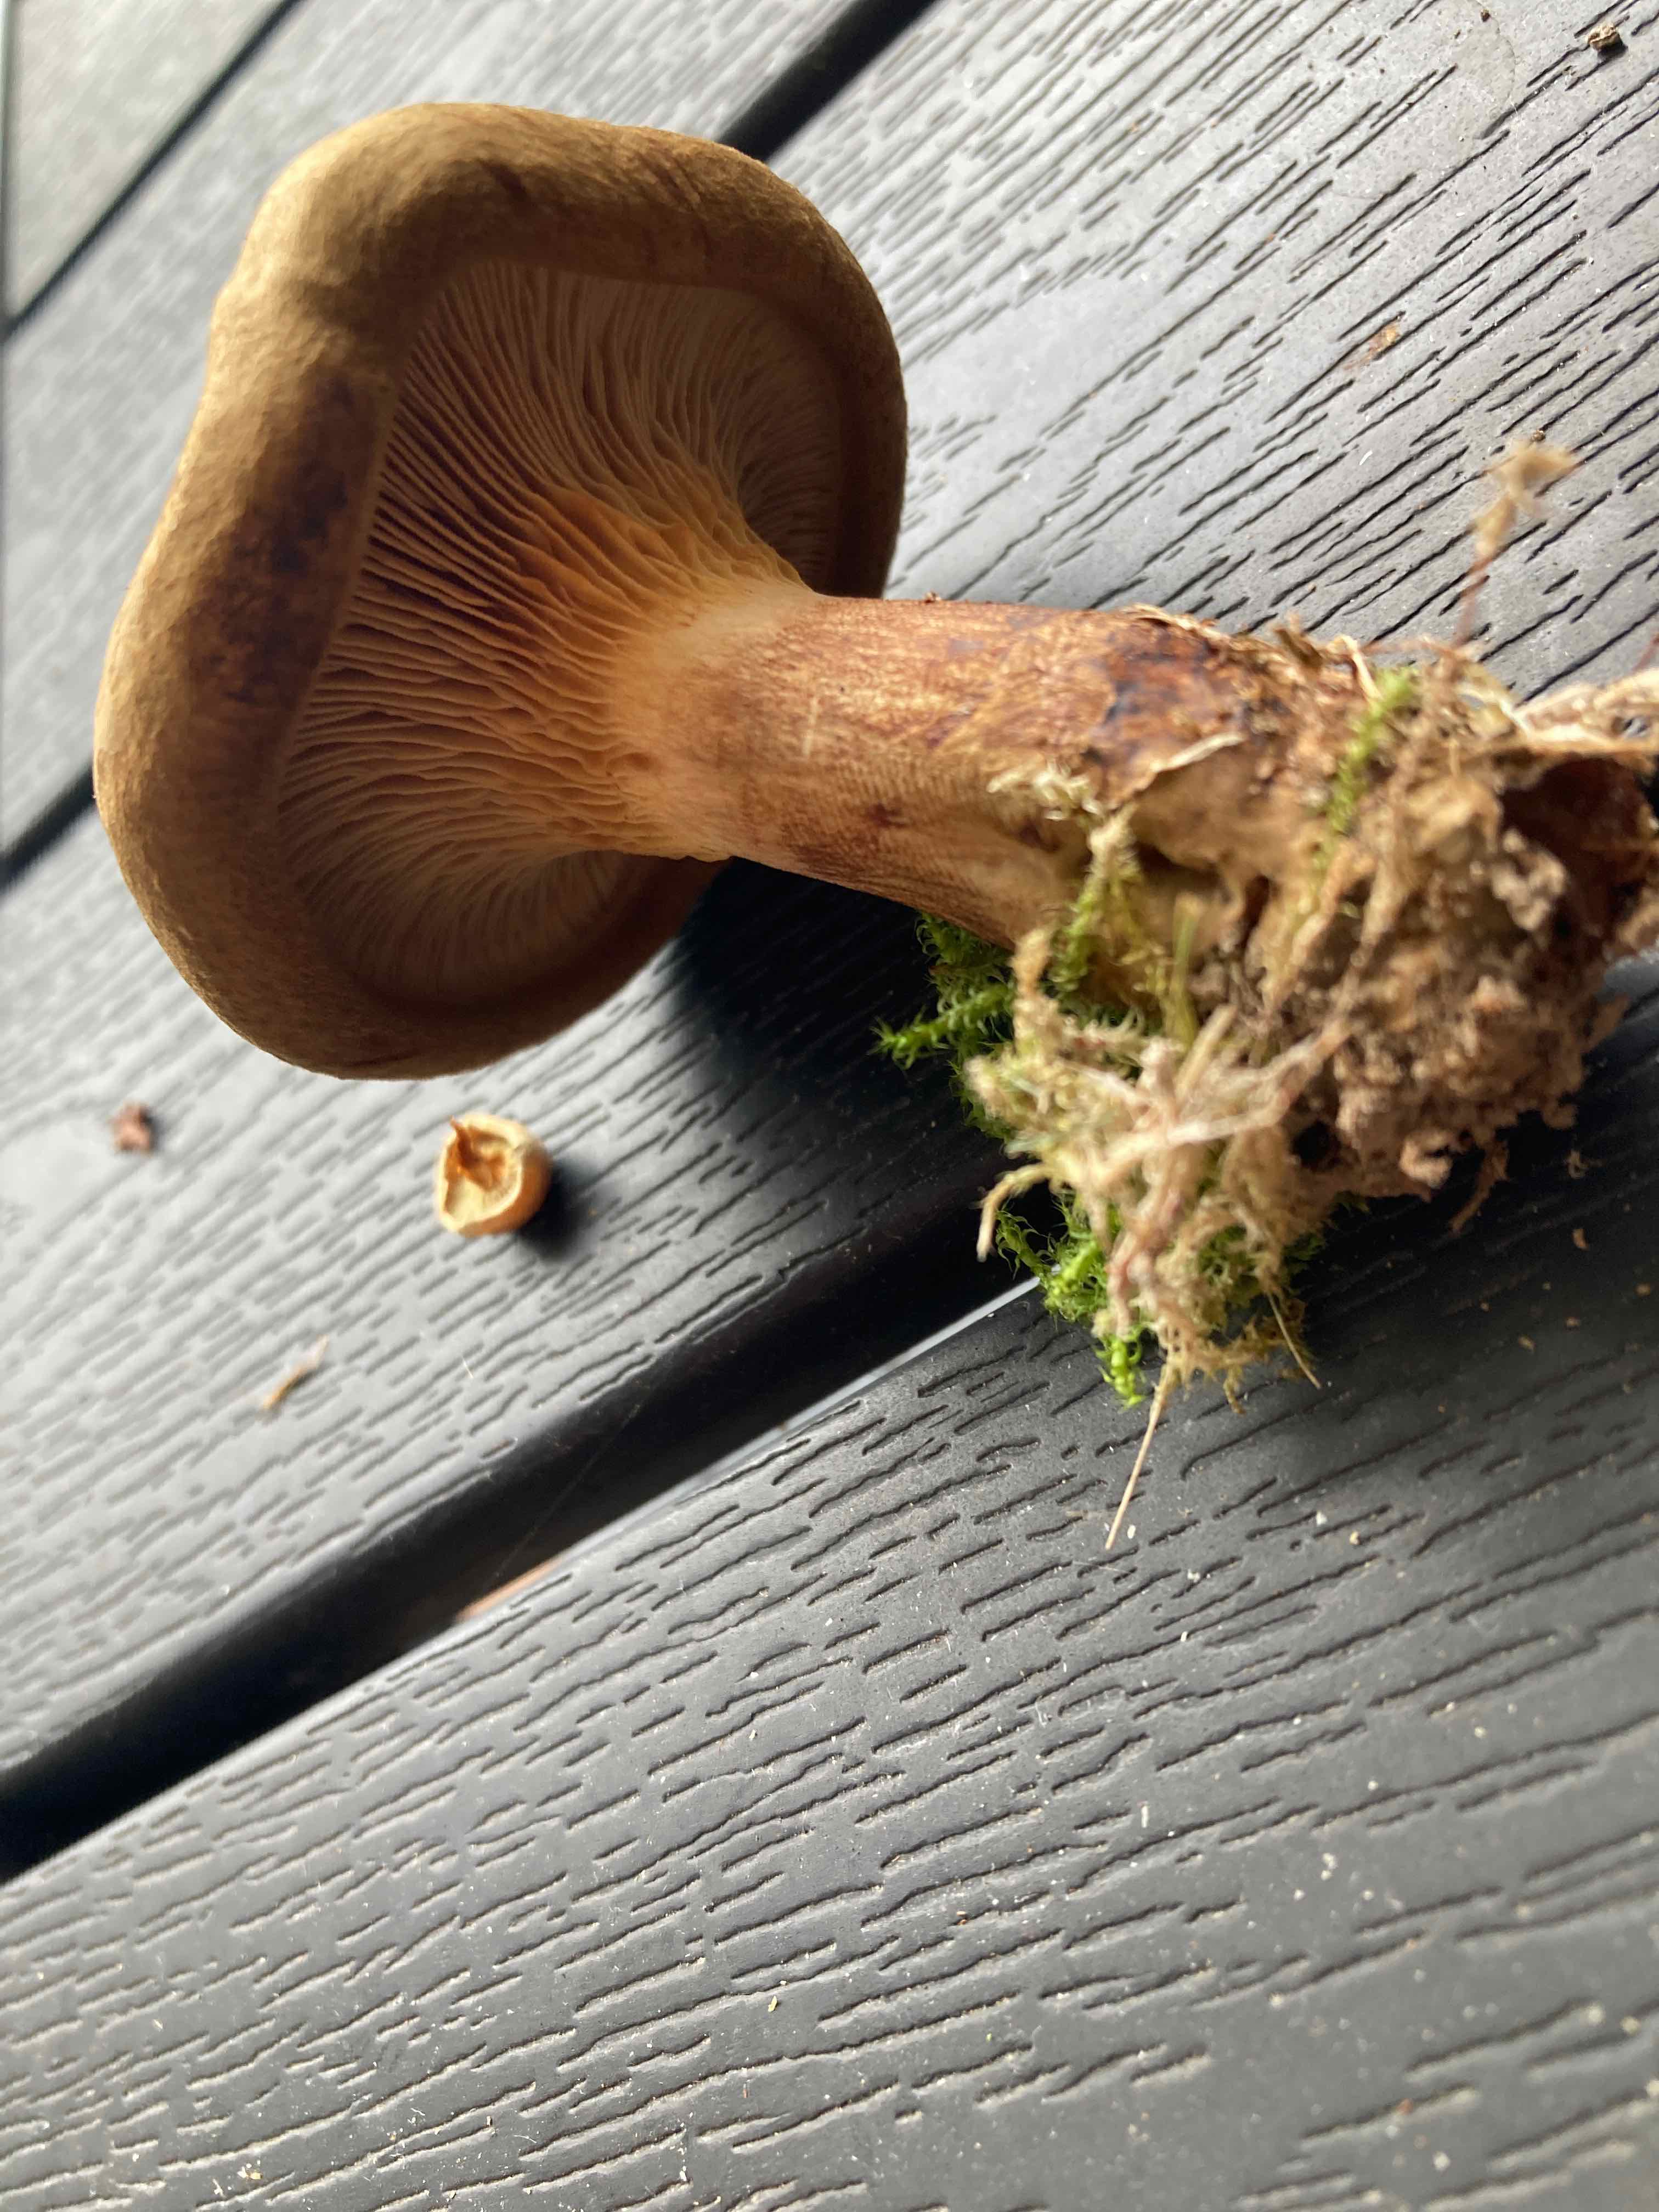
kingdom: Fungi
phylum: Basidiomycota
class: Agaricomycetes
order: Boletales
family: Paxillaceae
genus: Paxillus
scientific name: Paxillus involutus
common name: almindelig netbladhat
